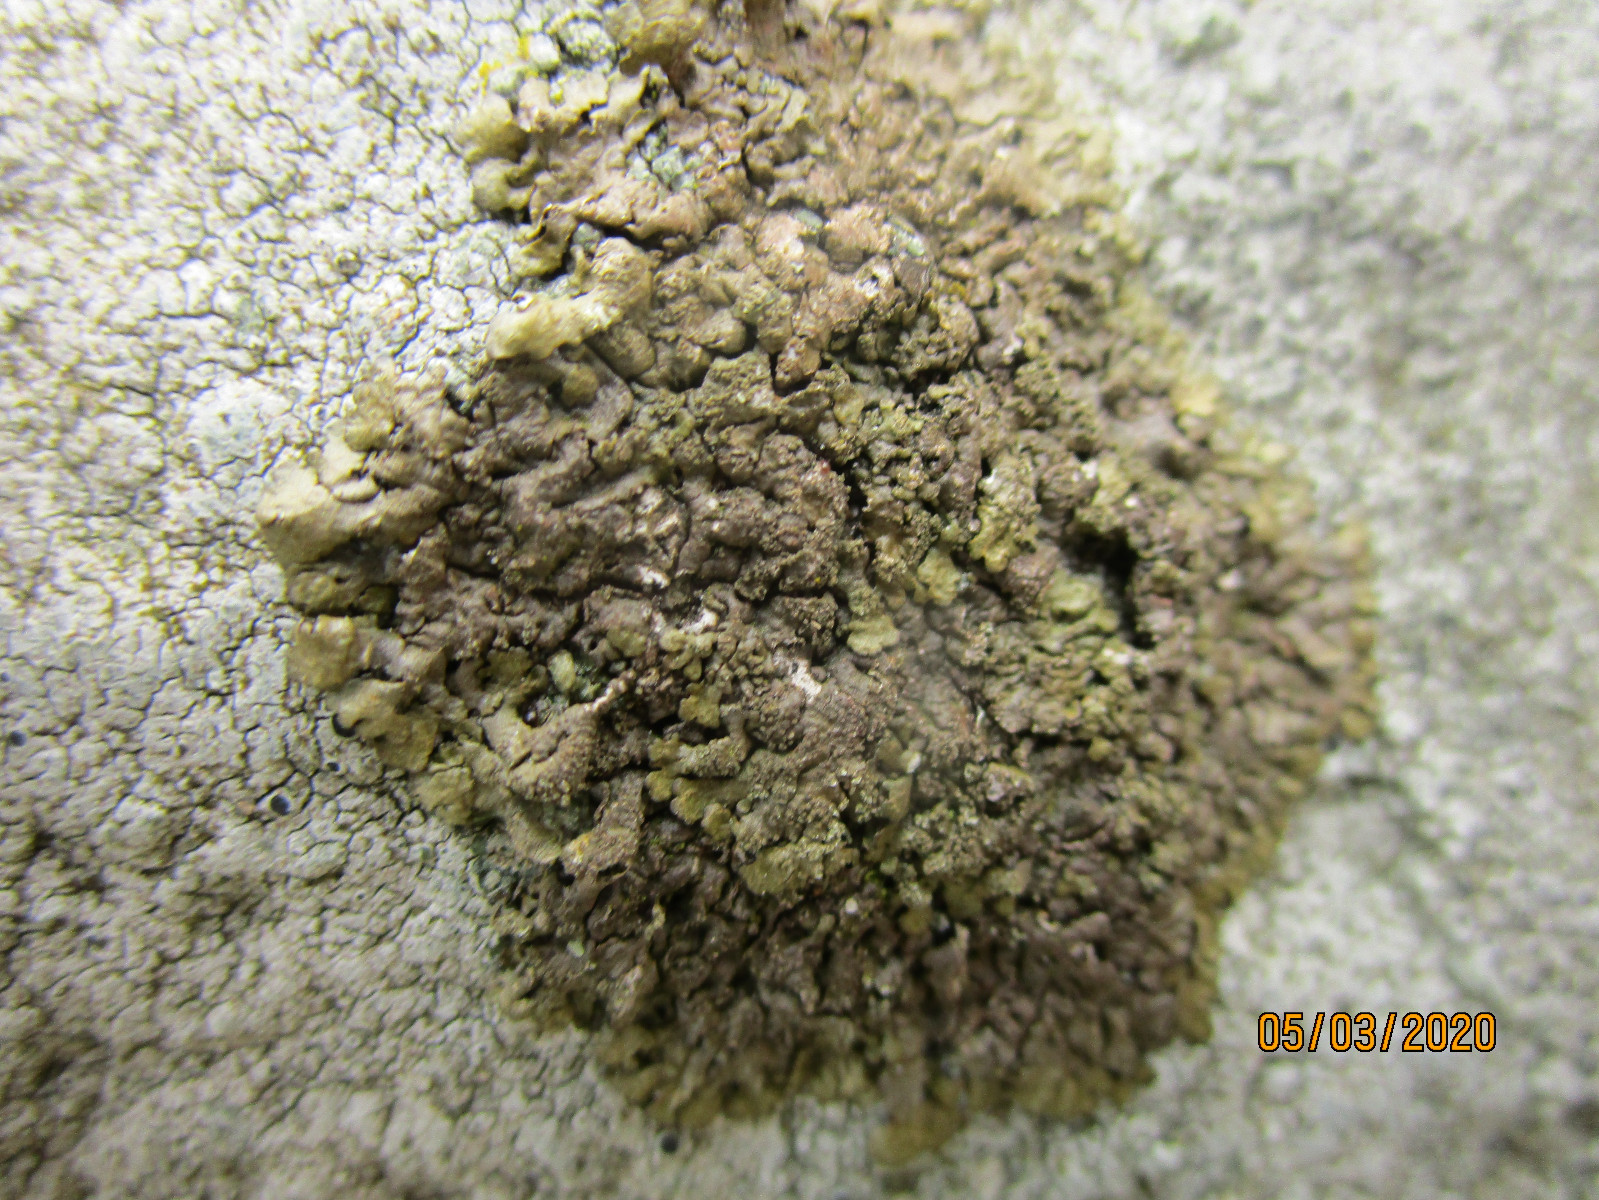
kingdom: Fungi
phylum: Ascomycota
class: Lecanoromycetes
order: Lecanorales
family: Parmeliaceae
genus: Xanthoparmelia
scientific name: Xanthoparmelia verruculifera
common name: småknoppet skållav
